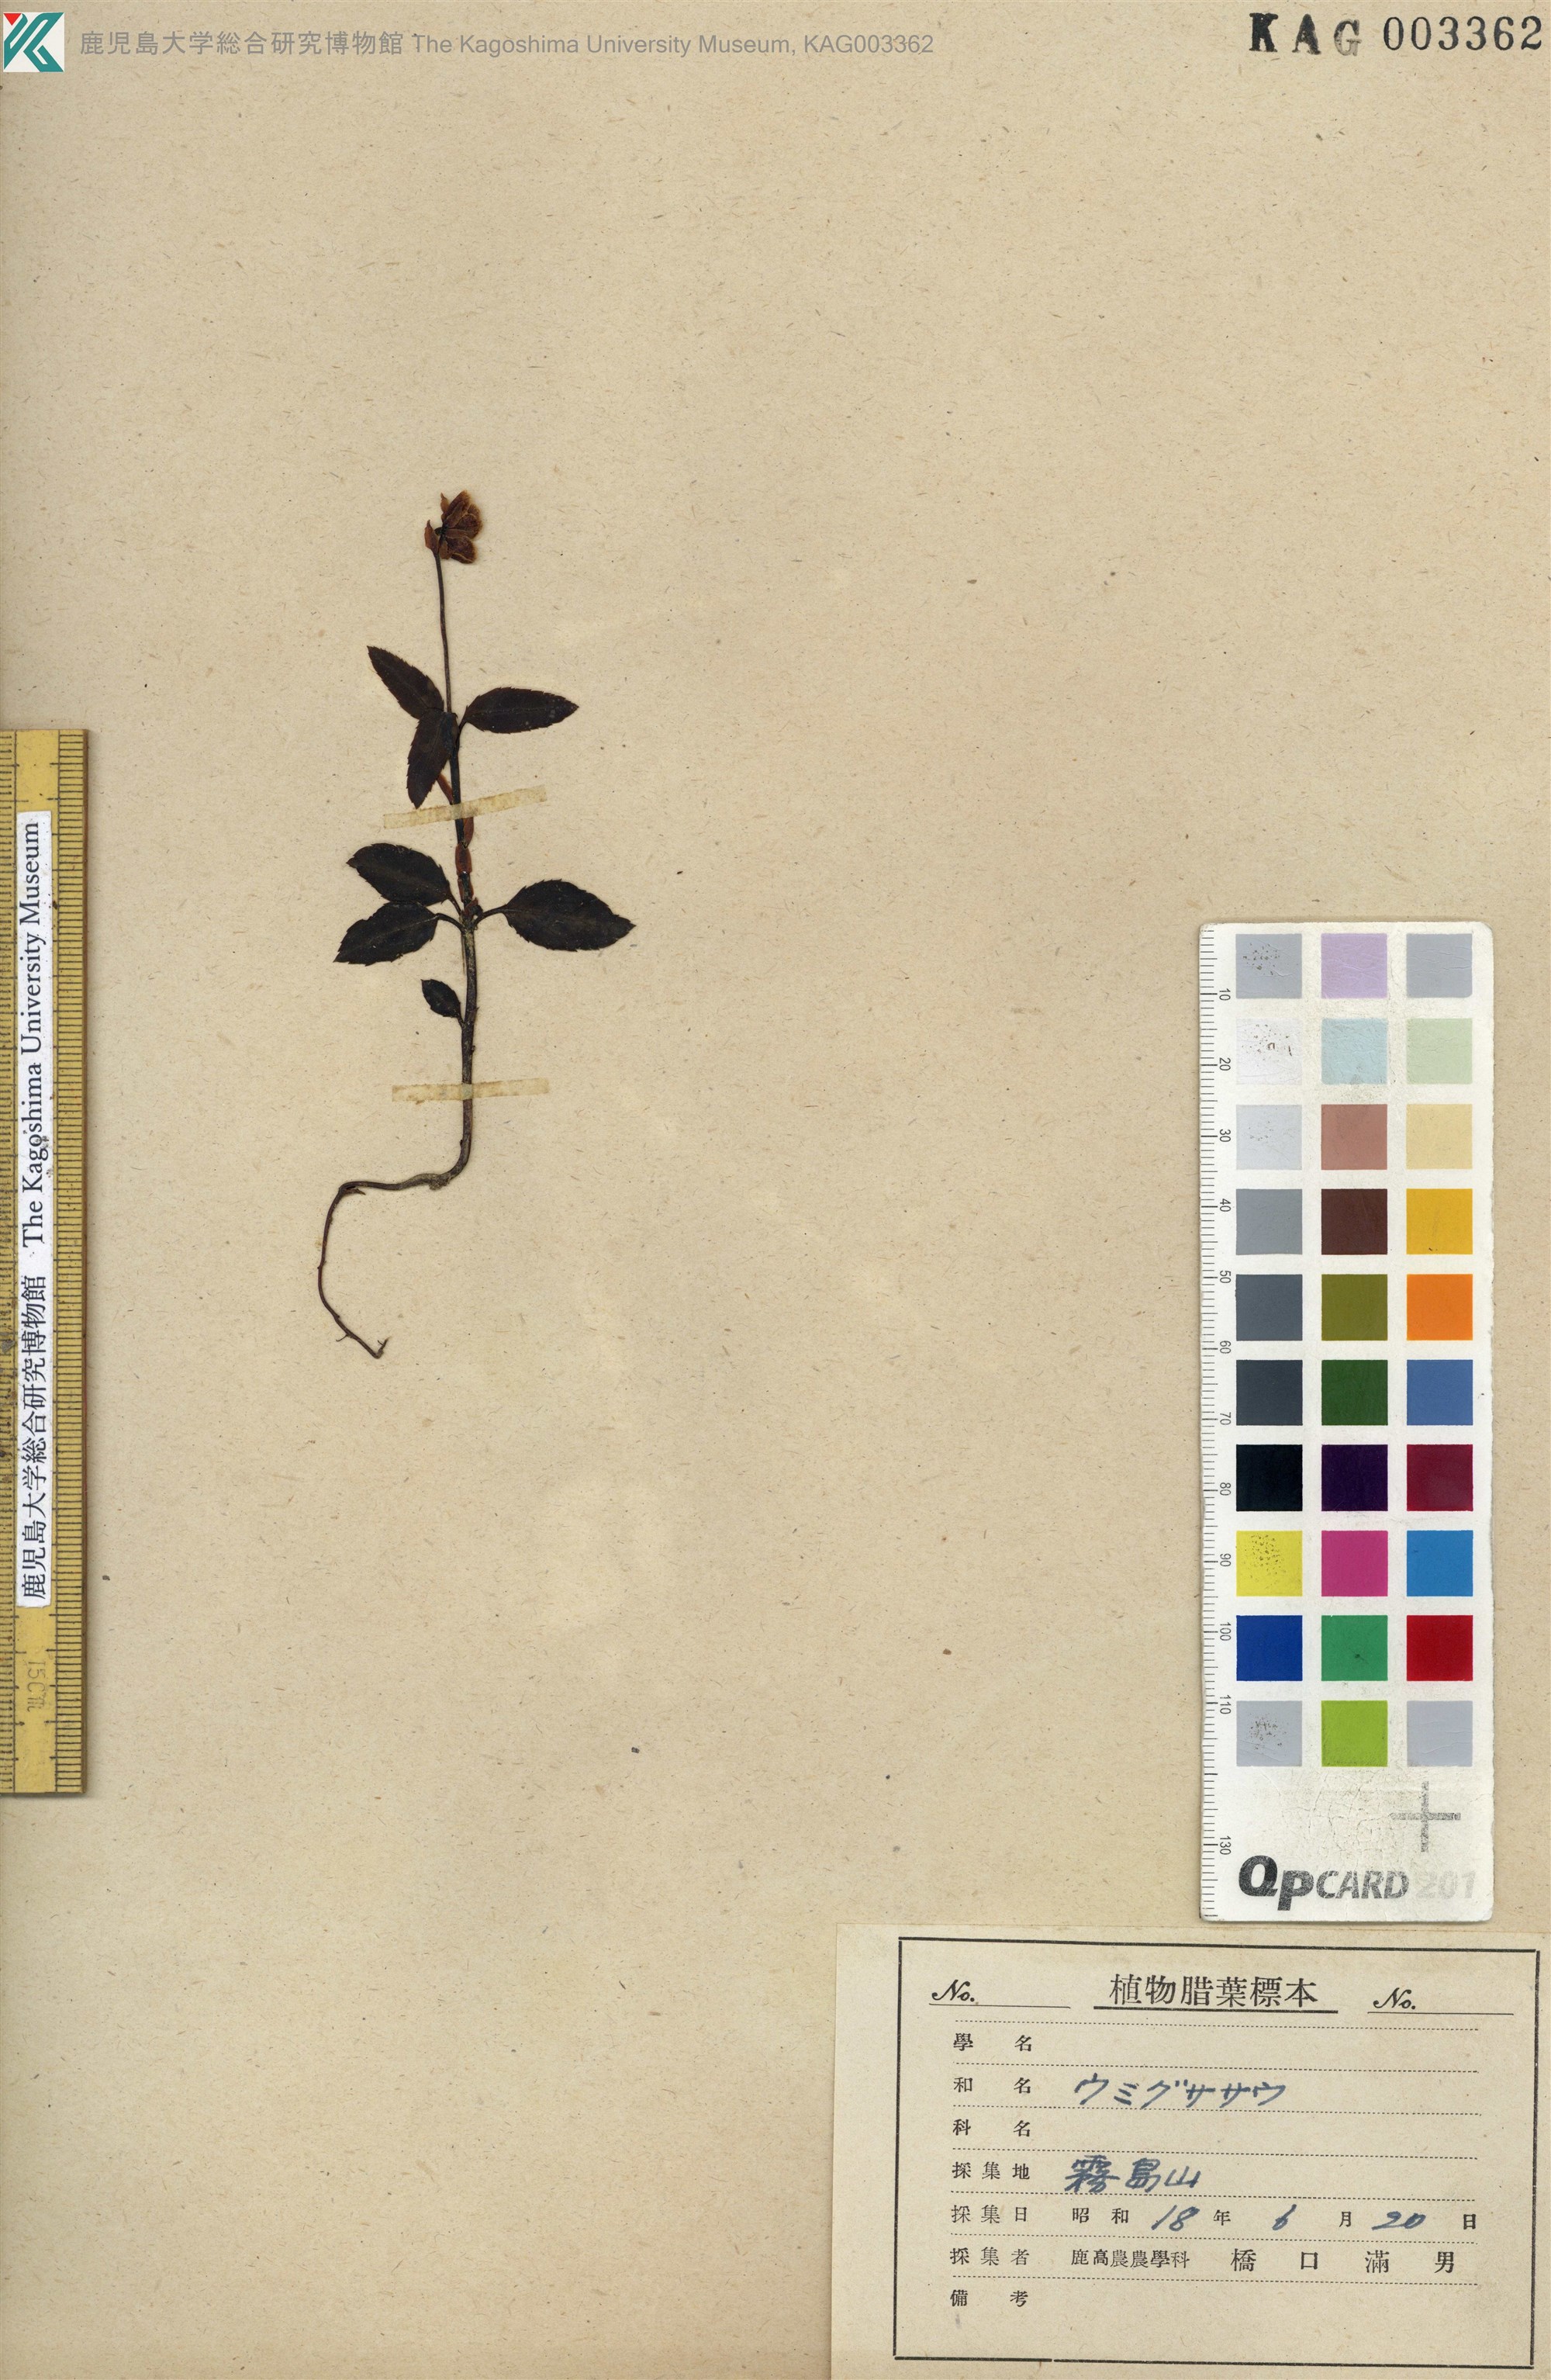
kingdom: Plantae
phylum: Tracheophyta
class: Magnoliopsida
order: Ericales
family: Ericaceae
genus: Chimaphila
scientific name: Chimaphila japonica
